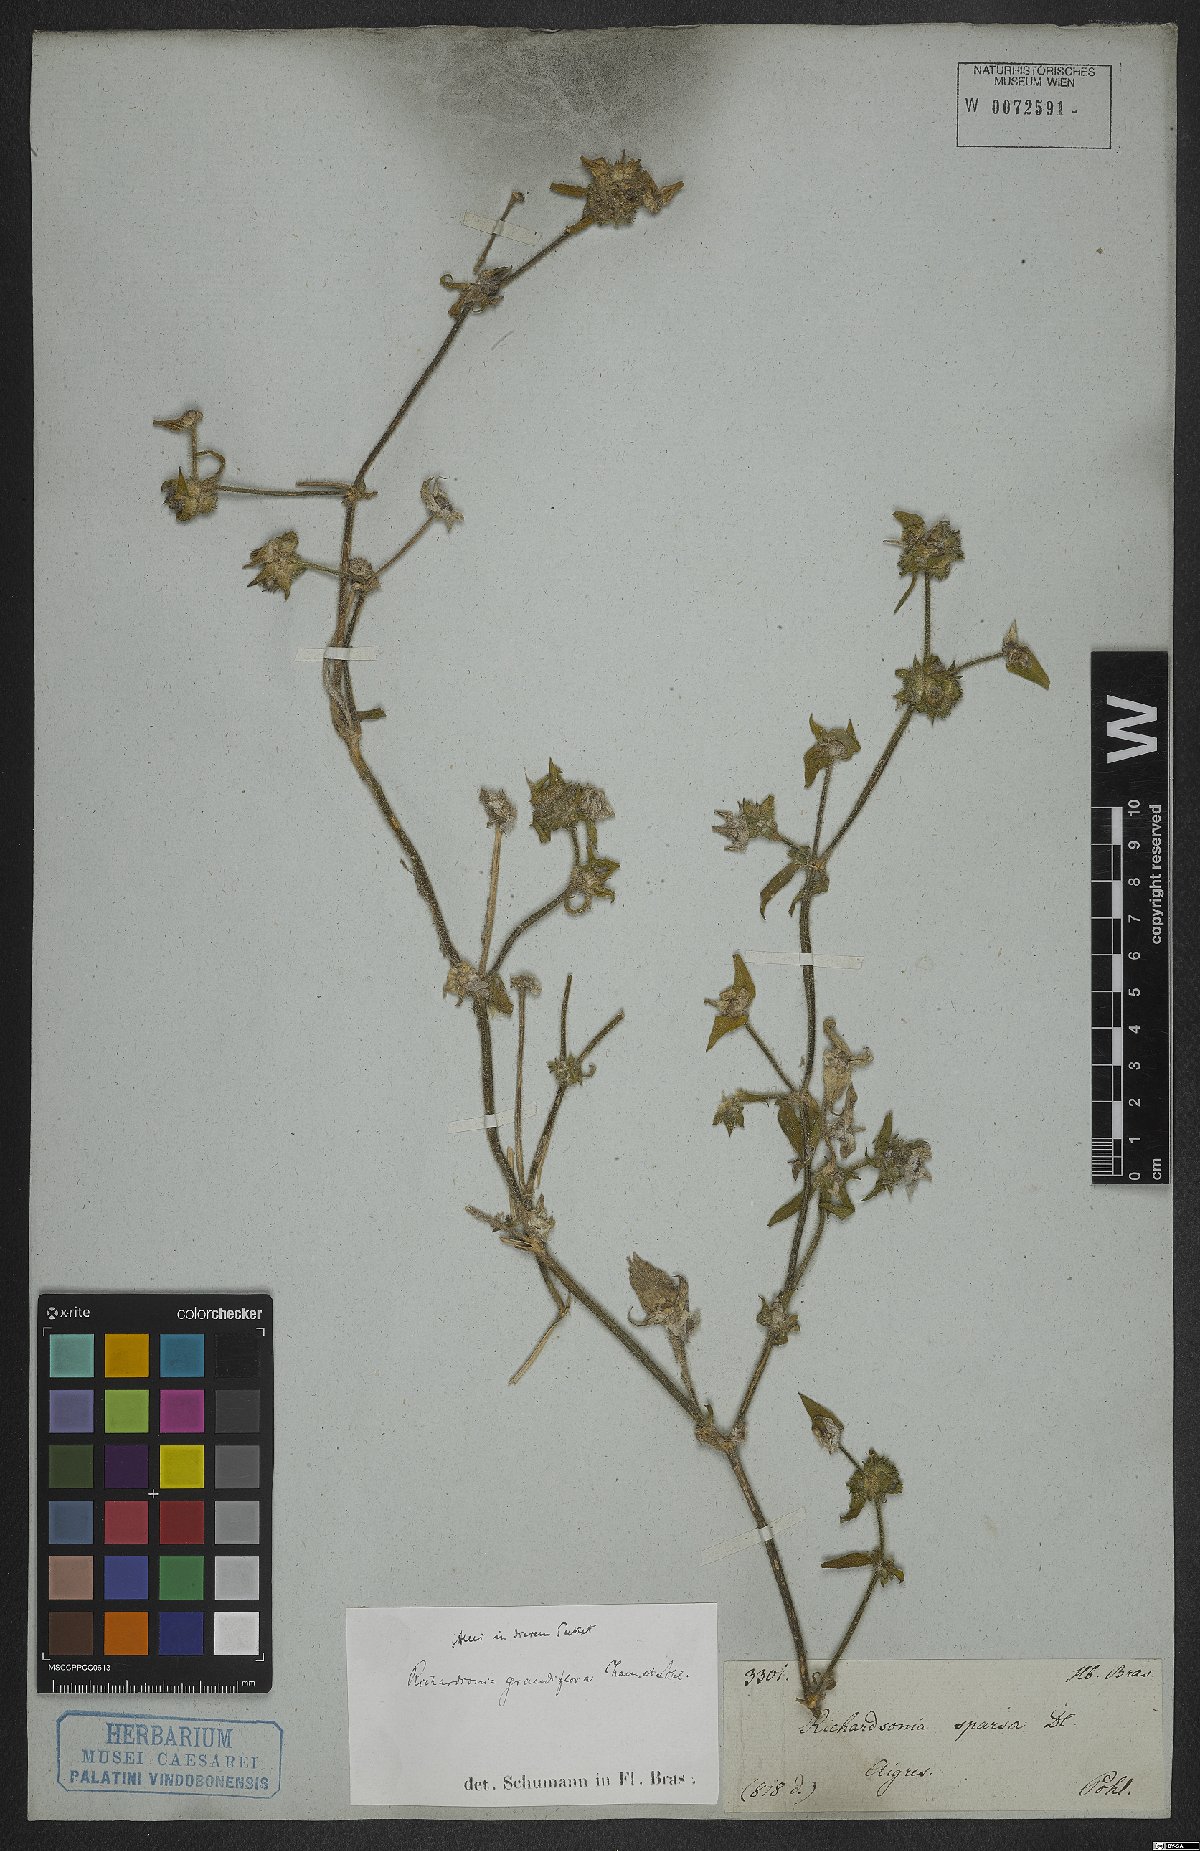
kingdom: Plantae
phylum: Tracheophyta
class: Magnoliopsida
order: Gentianales
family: Rubiaceae
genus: Richardia
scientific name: Richardia grandiflora
